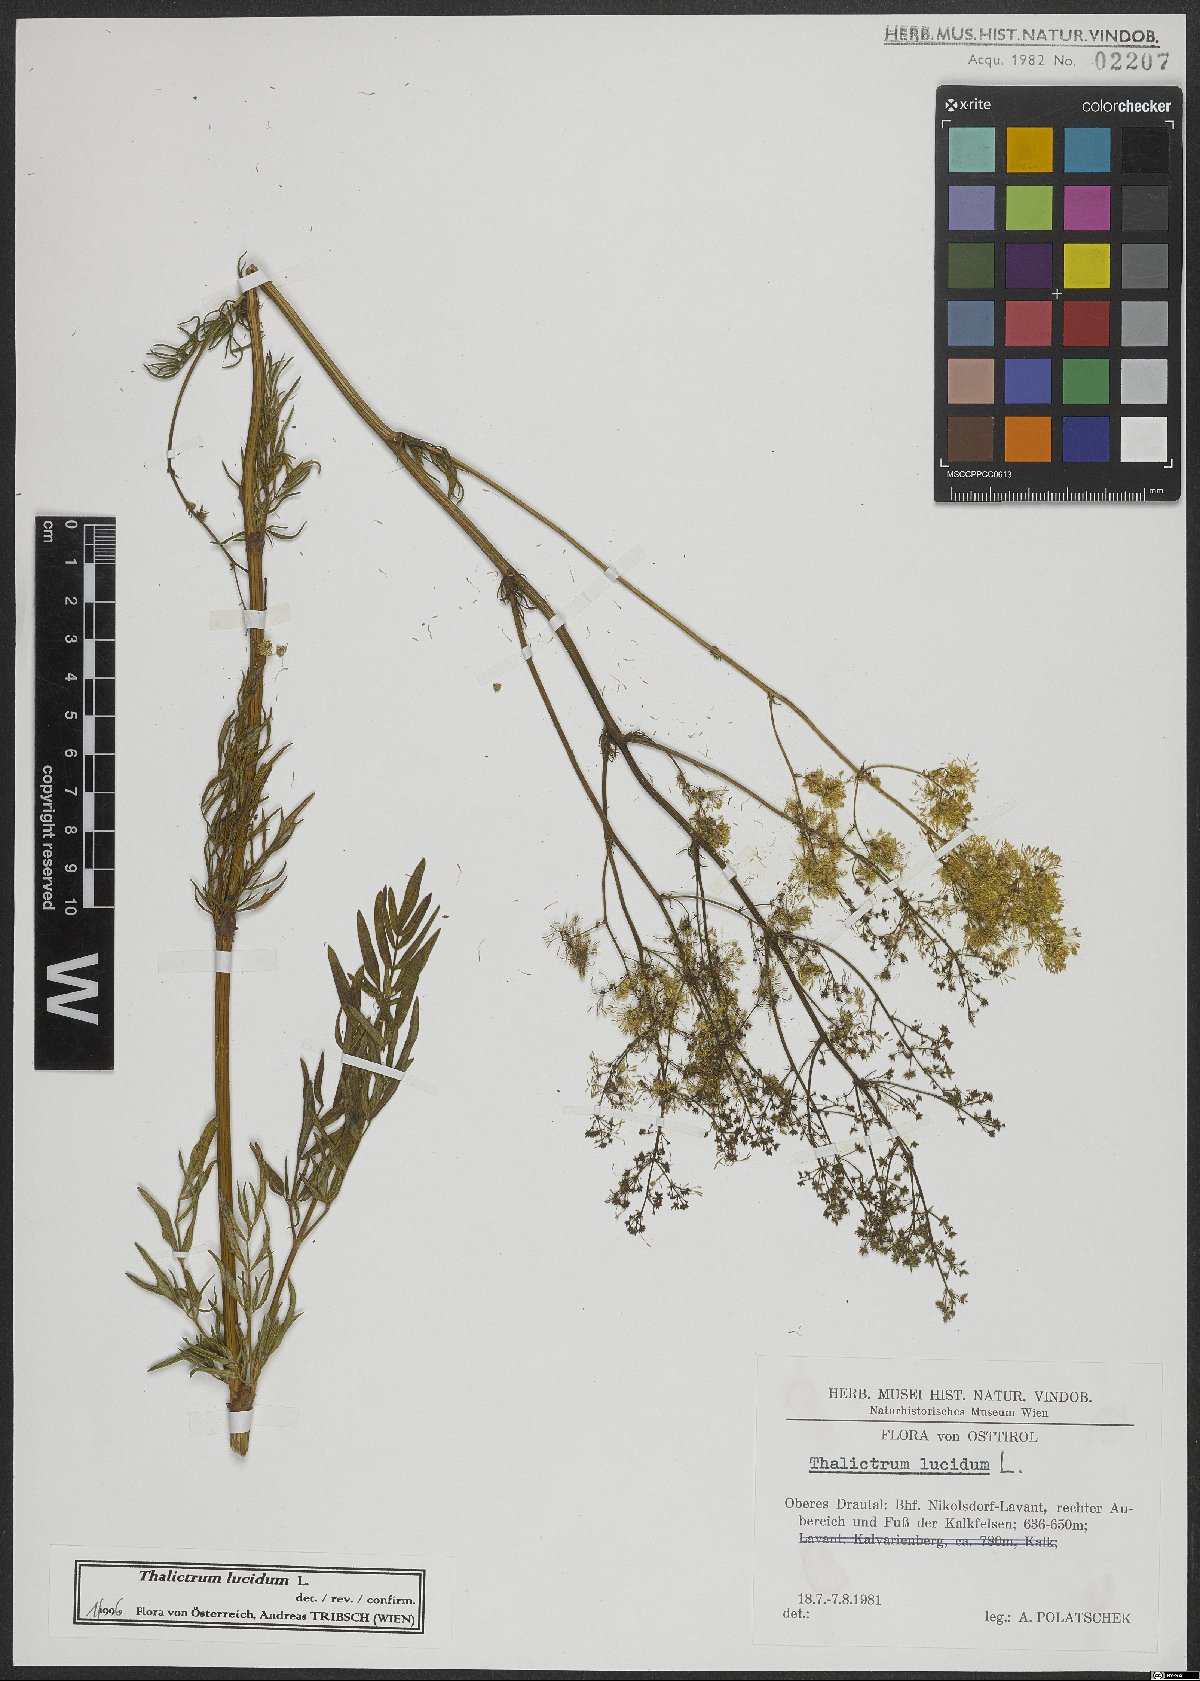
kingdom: Plantae
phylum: Tracheophyta
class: Magnoliopsida
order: Ranunculales
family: Ranunculaceae
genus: Thalictrum
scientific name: Thalictrum lucidum
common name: Shining meadow-rue
